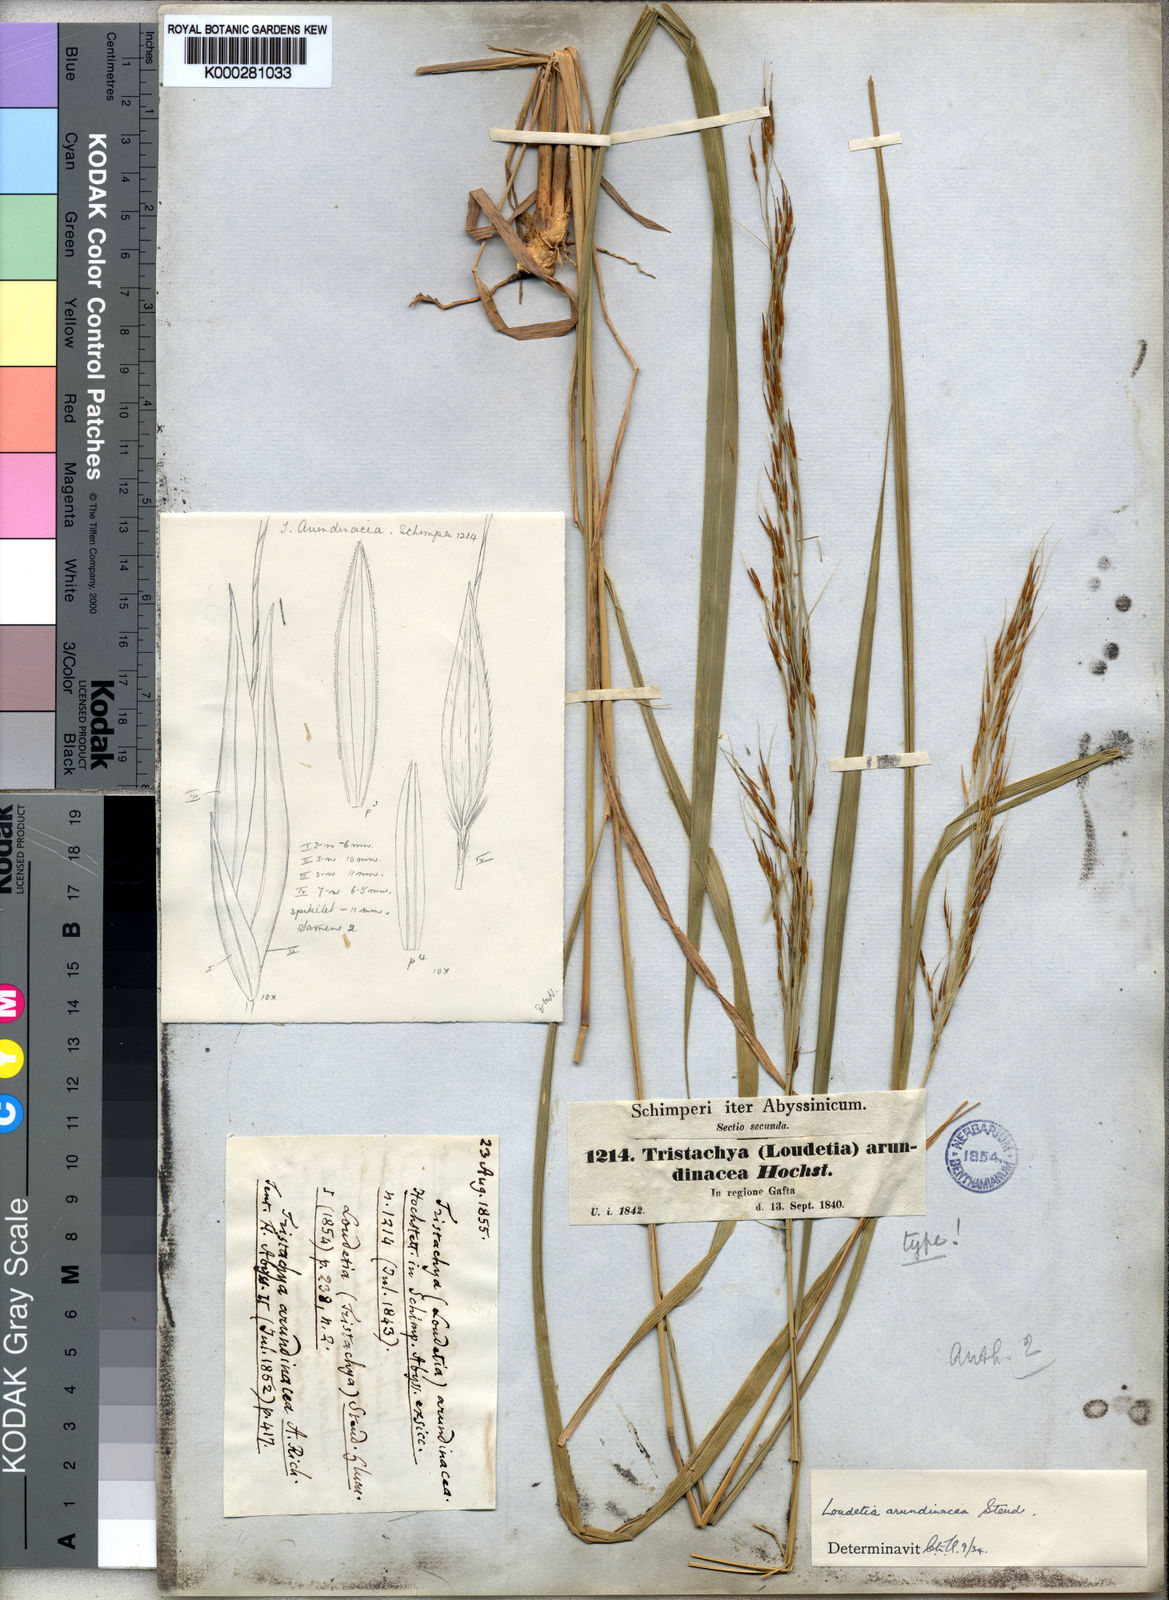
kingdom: Plantae
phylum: Tracheophyta
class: Liliopsida
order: Poales
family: Poaceae
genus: Loudetia
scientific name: Loudetia arundinacea
